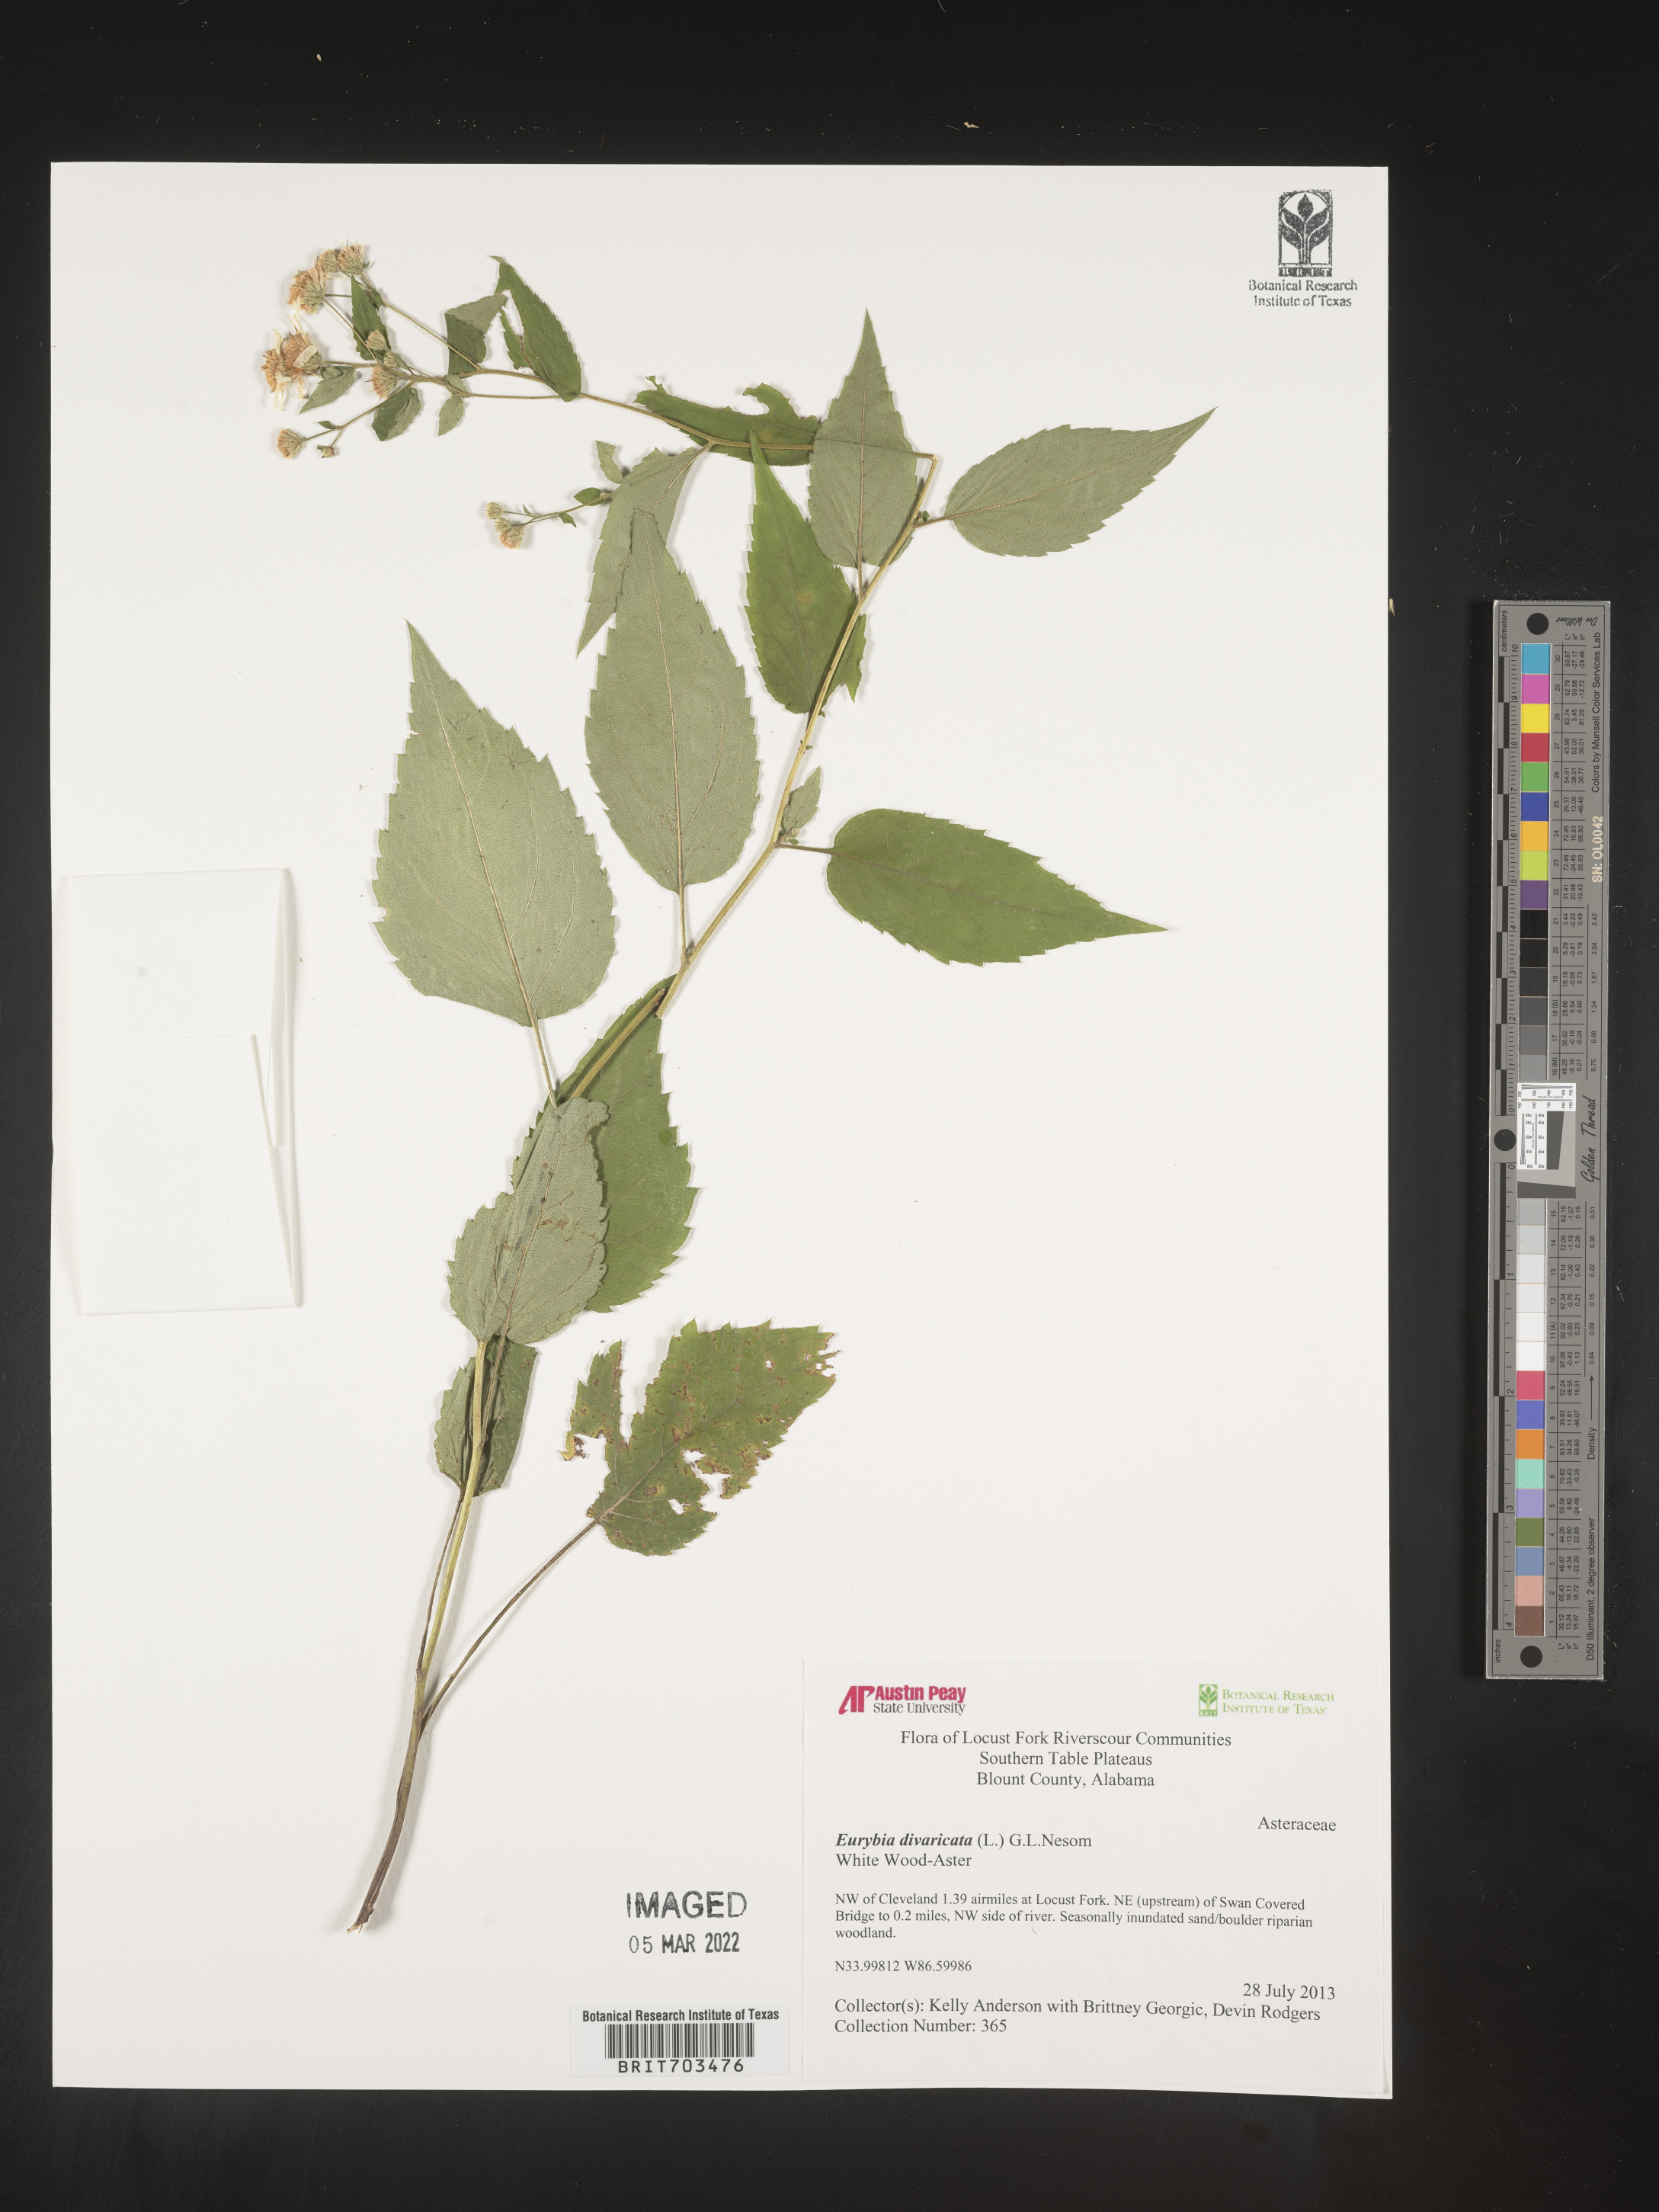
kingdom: Plantae
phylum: Tracheophyta
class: Magnoliopsida
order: Asterales
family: Asteraceae
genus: Eurybia
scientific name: Eurybia divaricata
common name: White wood aster
